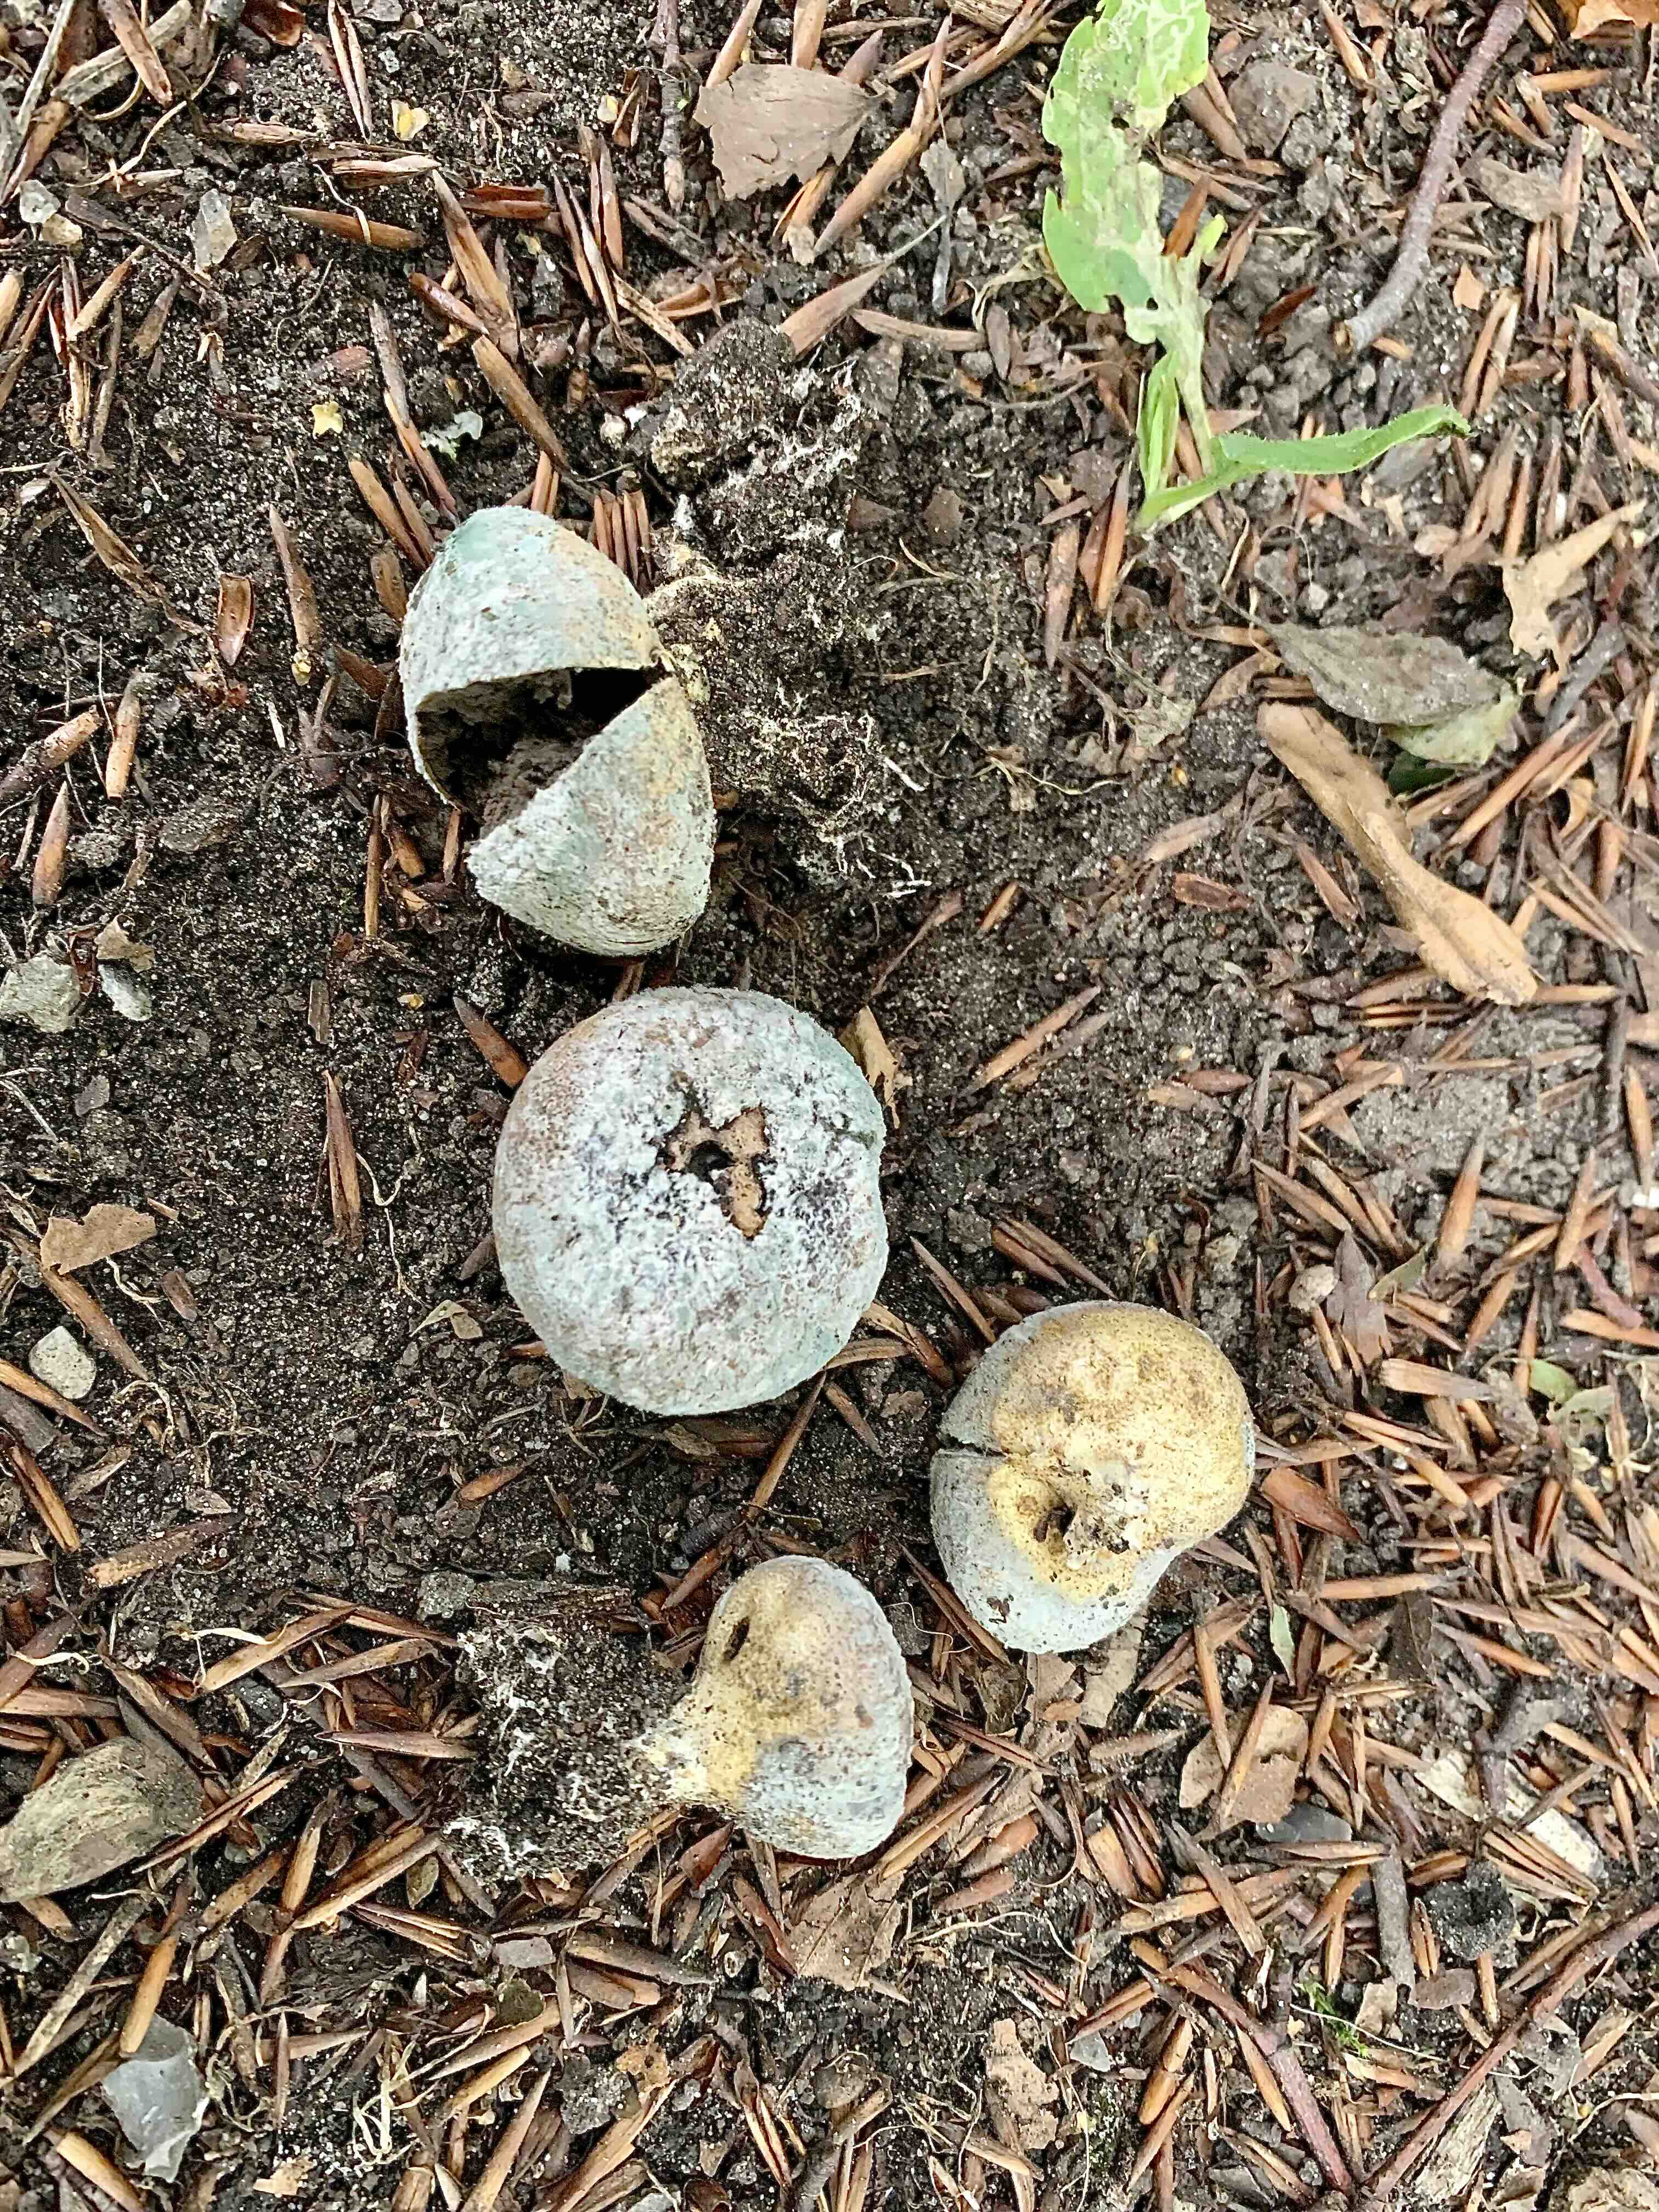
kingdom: Fungi
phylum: Basidiomycota
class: Agaricomycetes
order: Boletales
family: Sclerodermataceae
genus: Scleroderma
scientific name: Scleroderma
